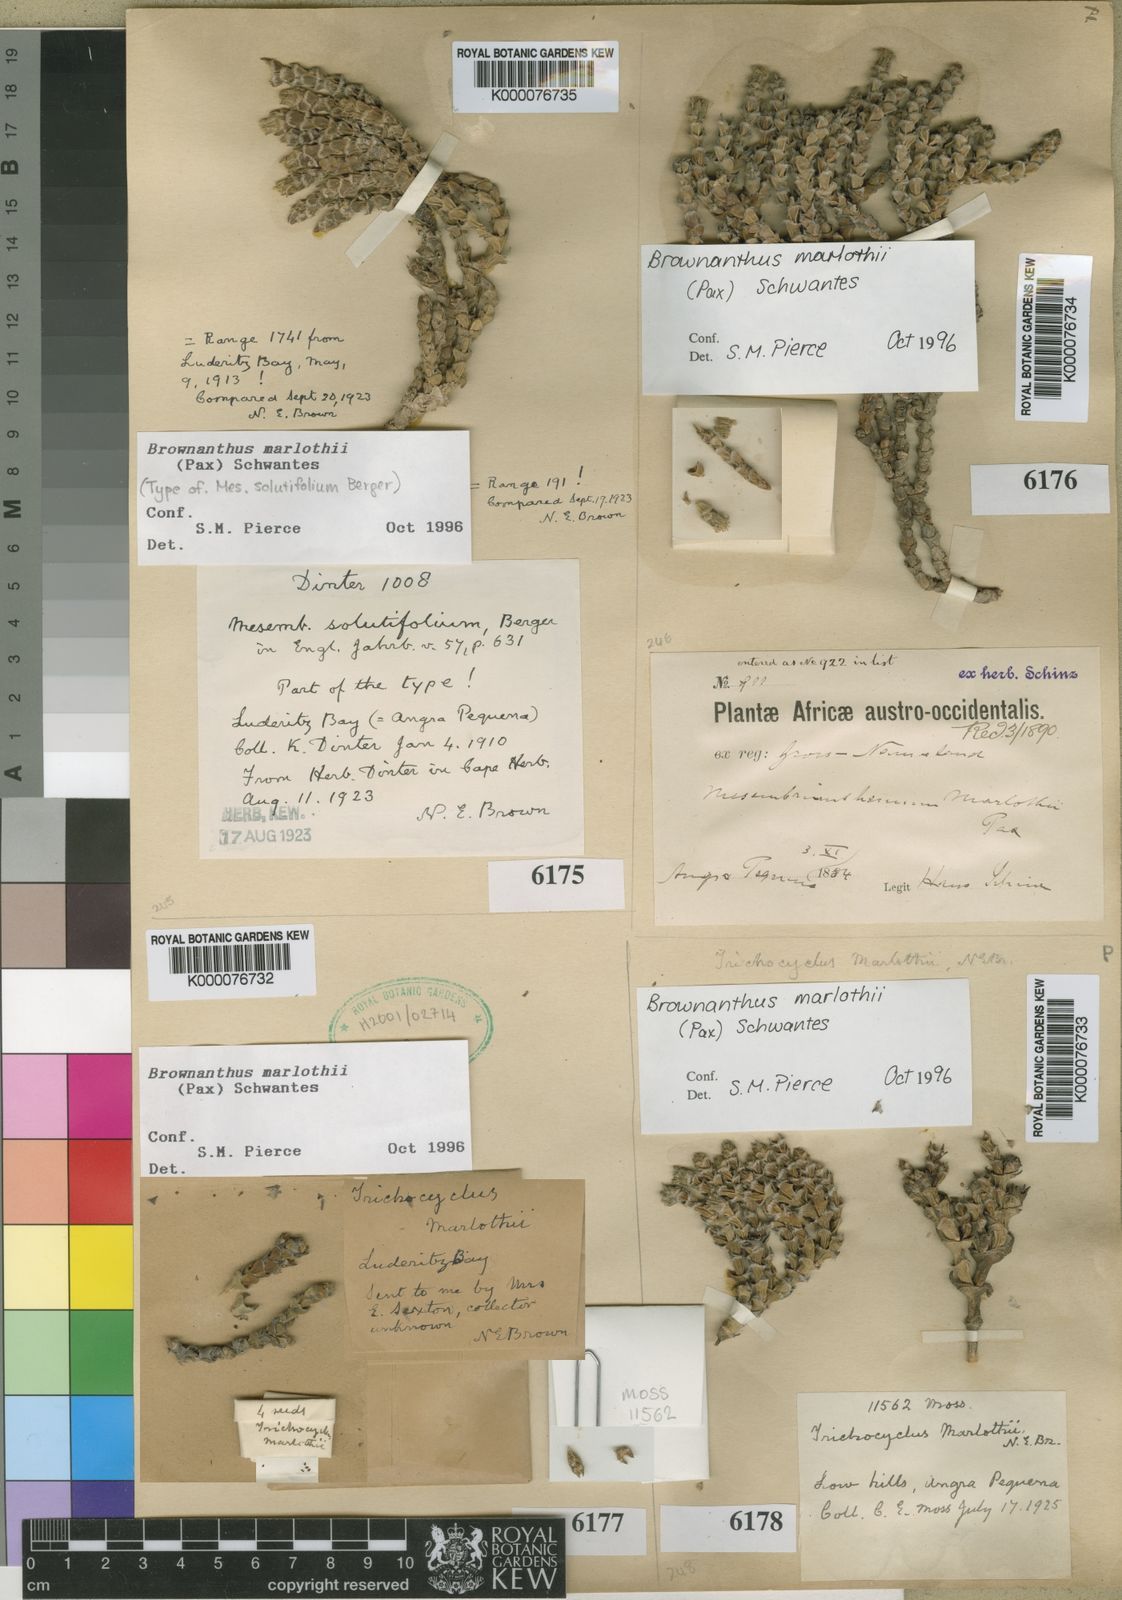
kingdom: Plantae
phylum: Tracheophyta
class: Magnoliopsida
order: Caryophyllales
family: Aizoaceae
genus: Mesembryanthemum
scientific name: Mesembryanthemum marlothii
